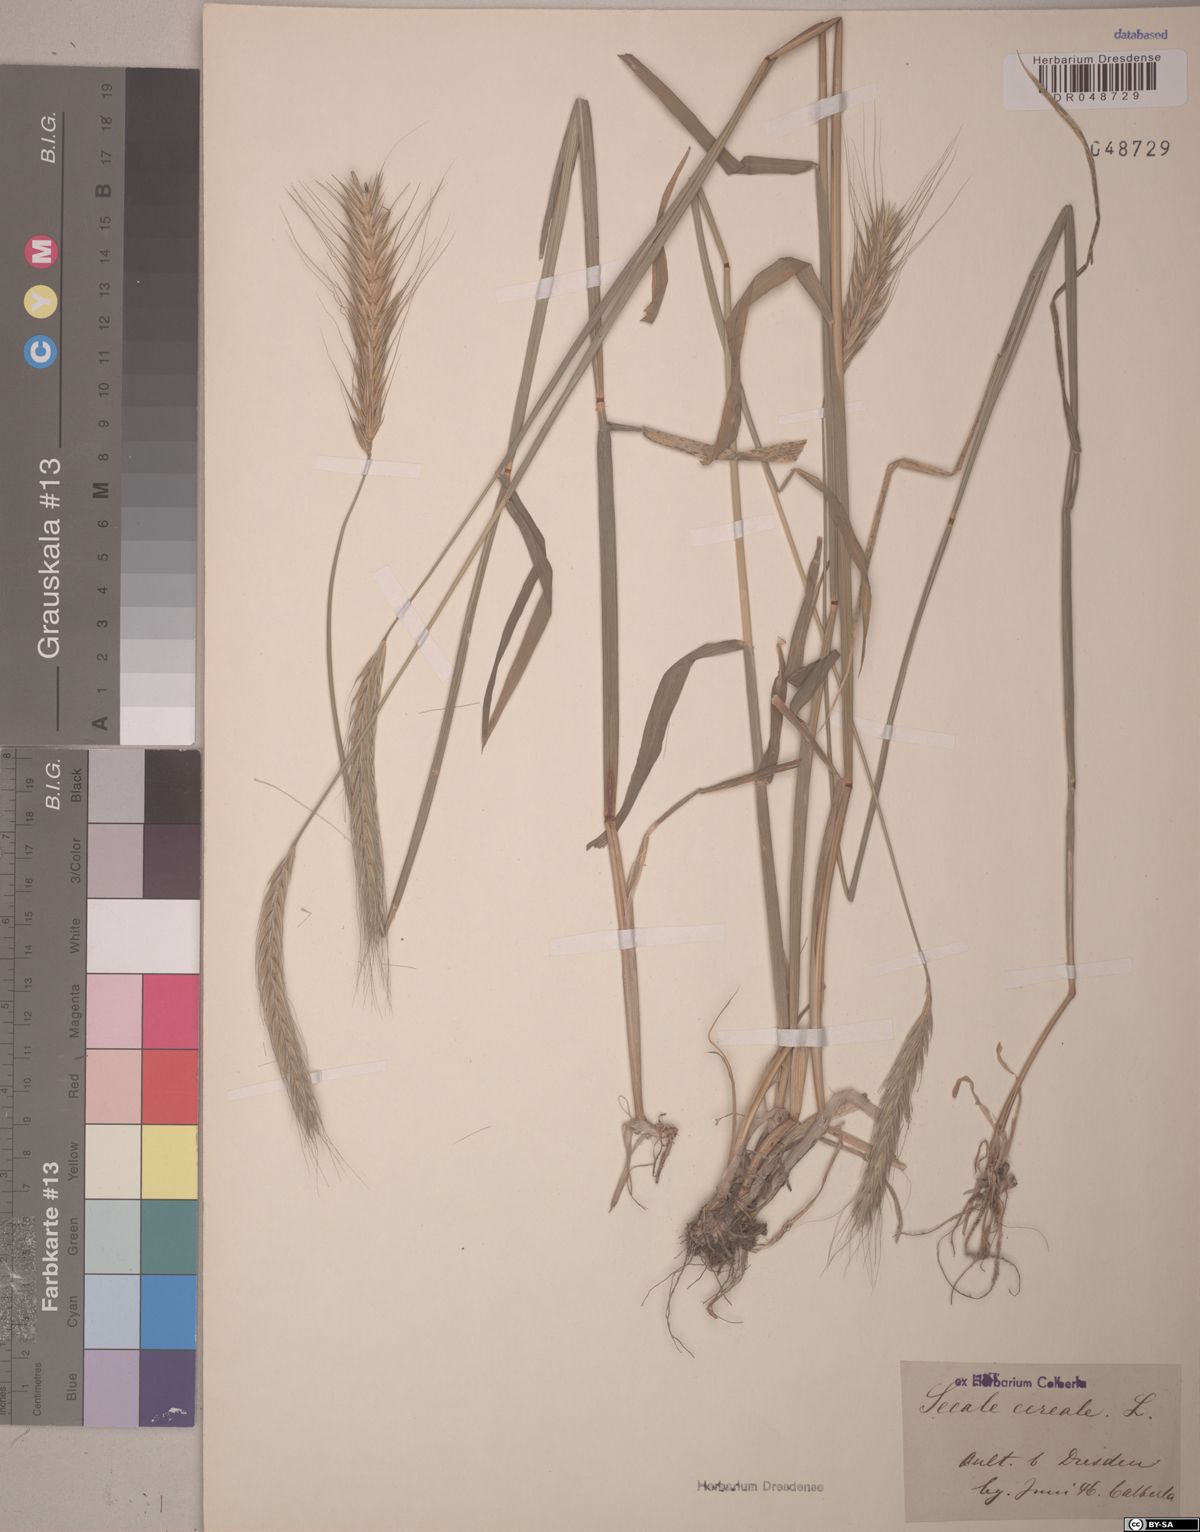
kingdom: Plantae
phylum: Tracheophyta
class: Liliopsida
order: Poales
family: Poaceae
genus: Secale
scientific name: Secale cereale
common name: Rye
